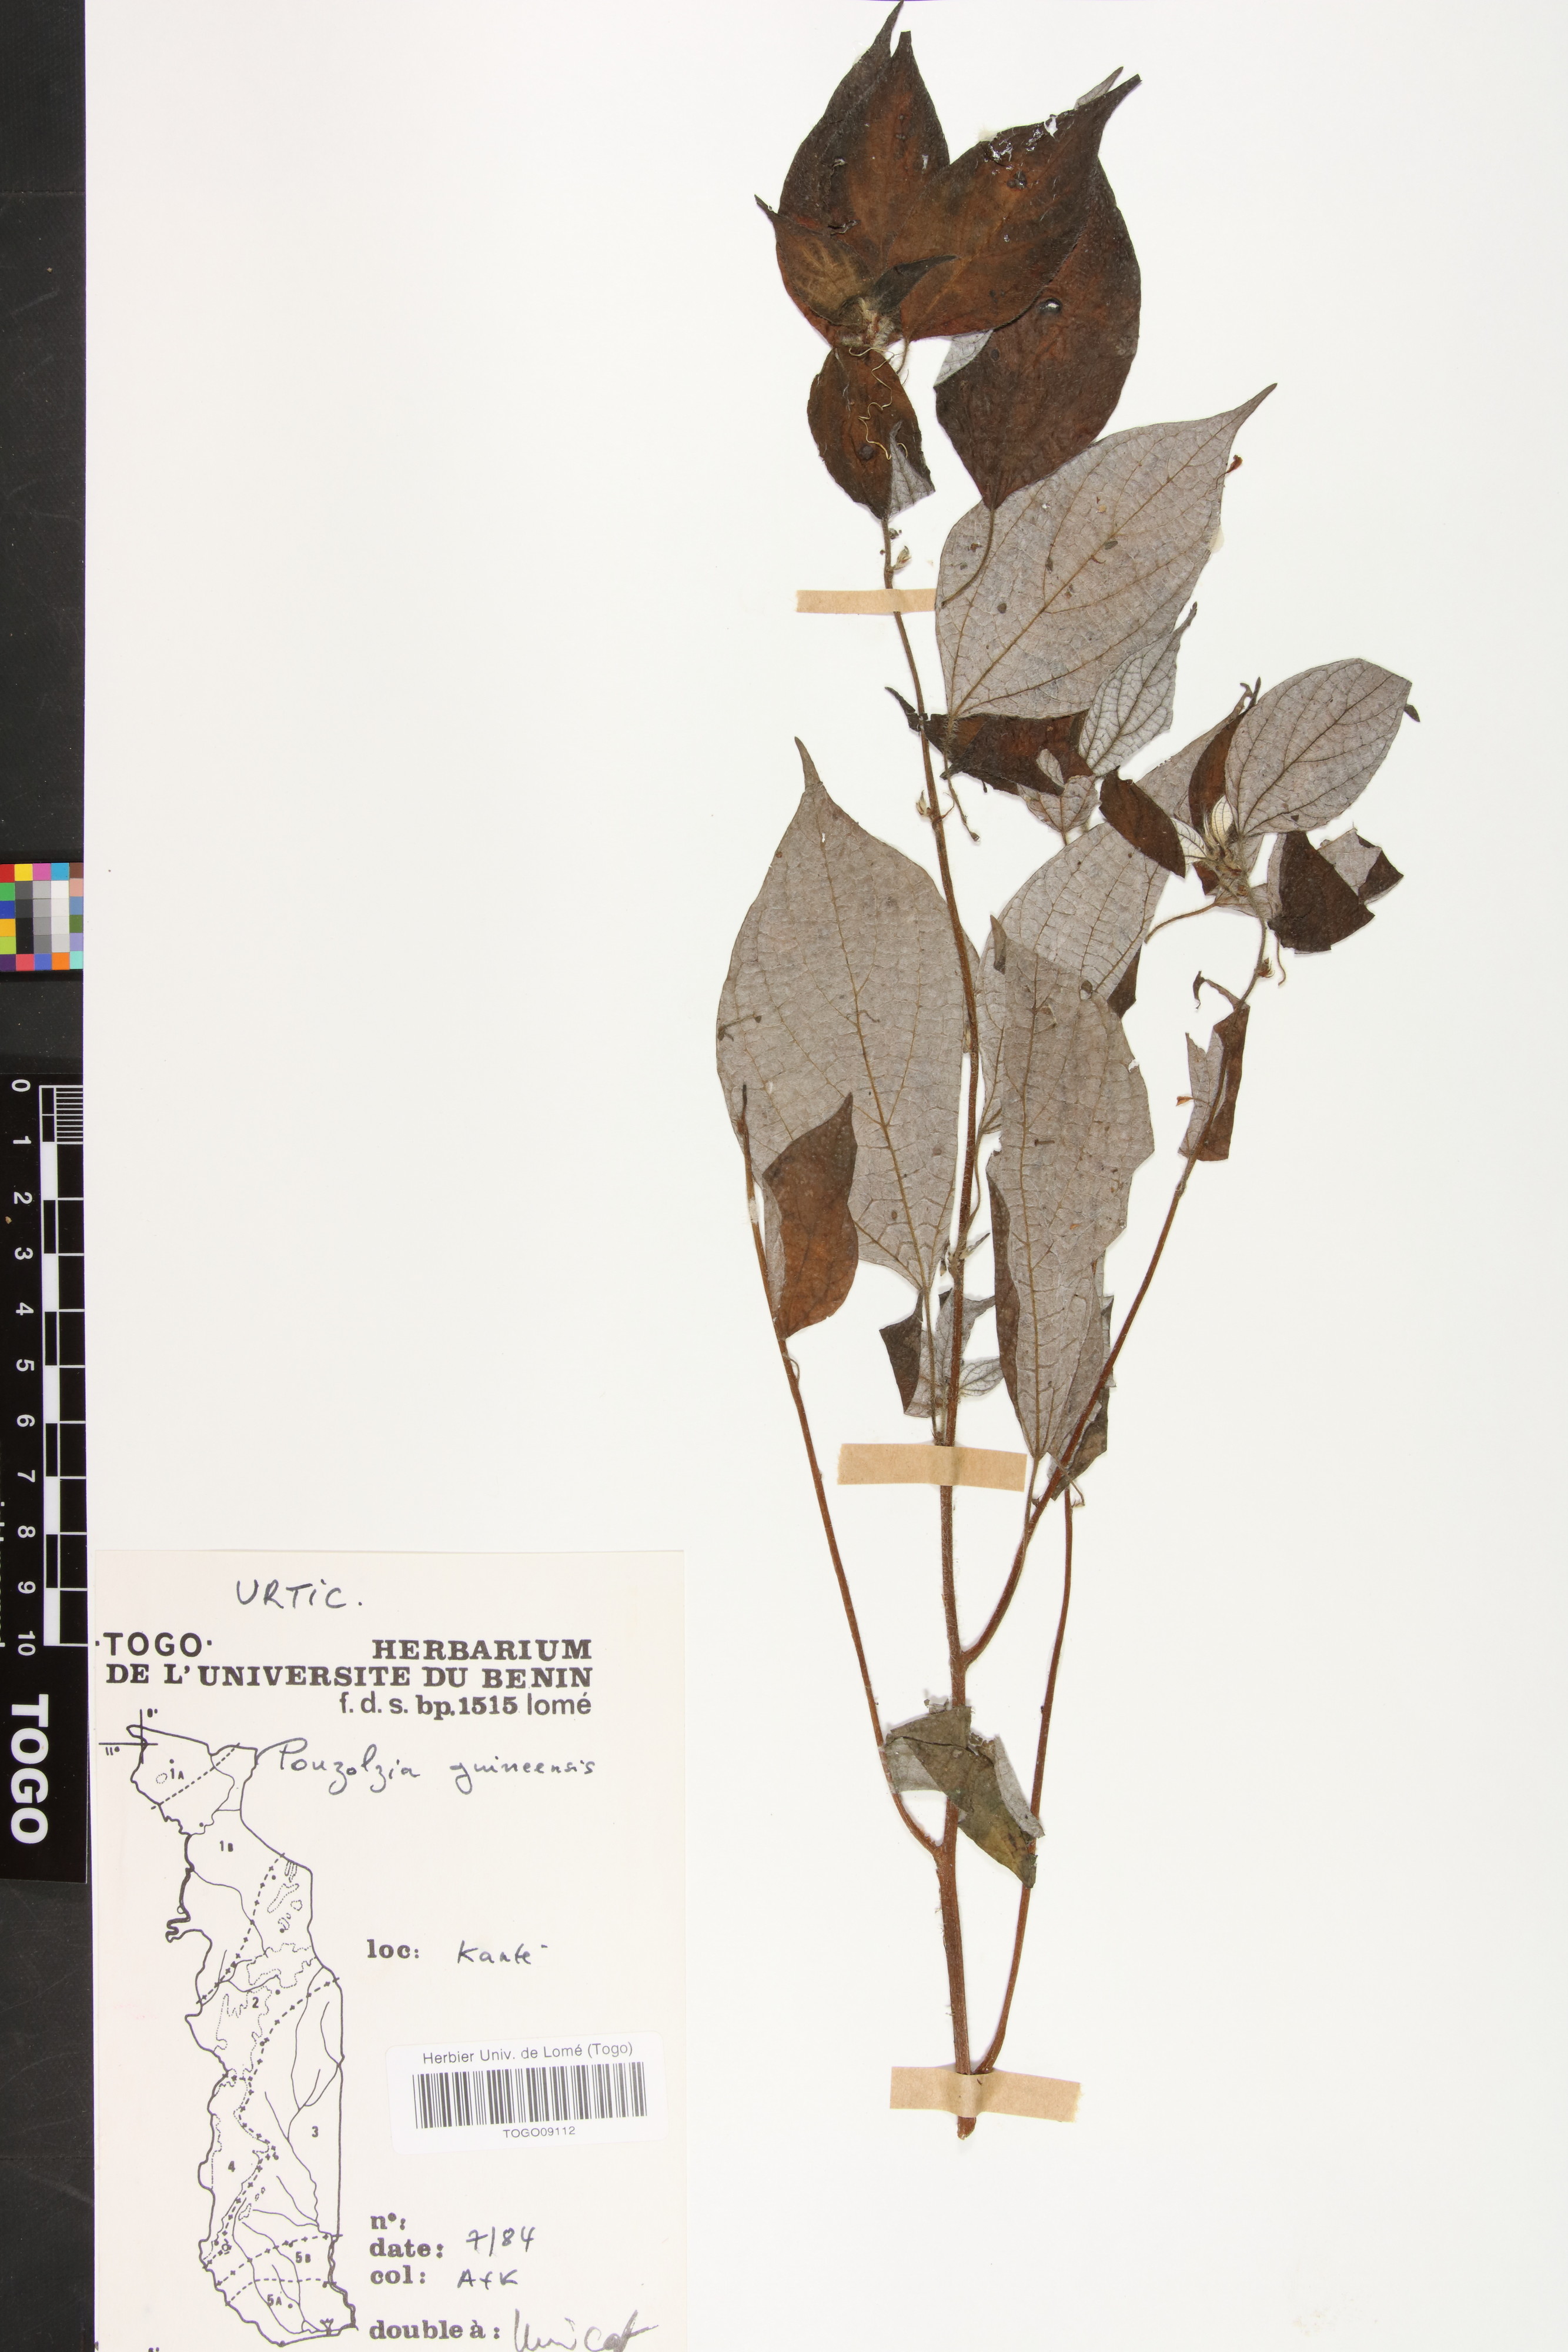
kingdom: Plantae
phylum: Tracheophyta
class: Magnoliopsida
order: Rosales
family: Urticaceae
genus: Pouzolzia
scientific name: Pouzolzia guineensis
